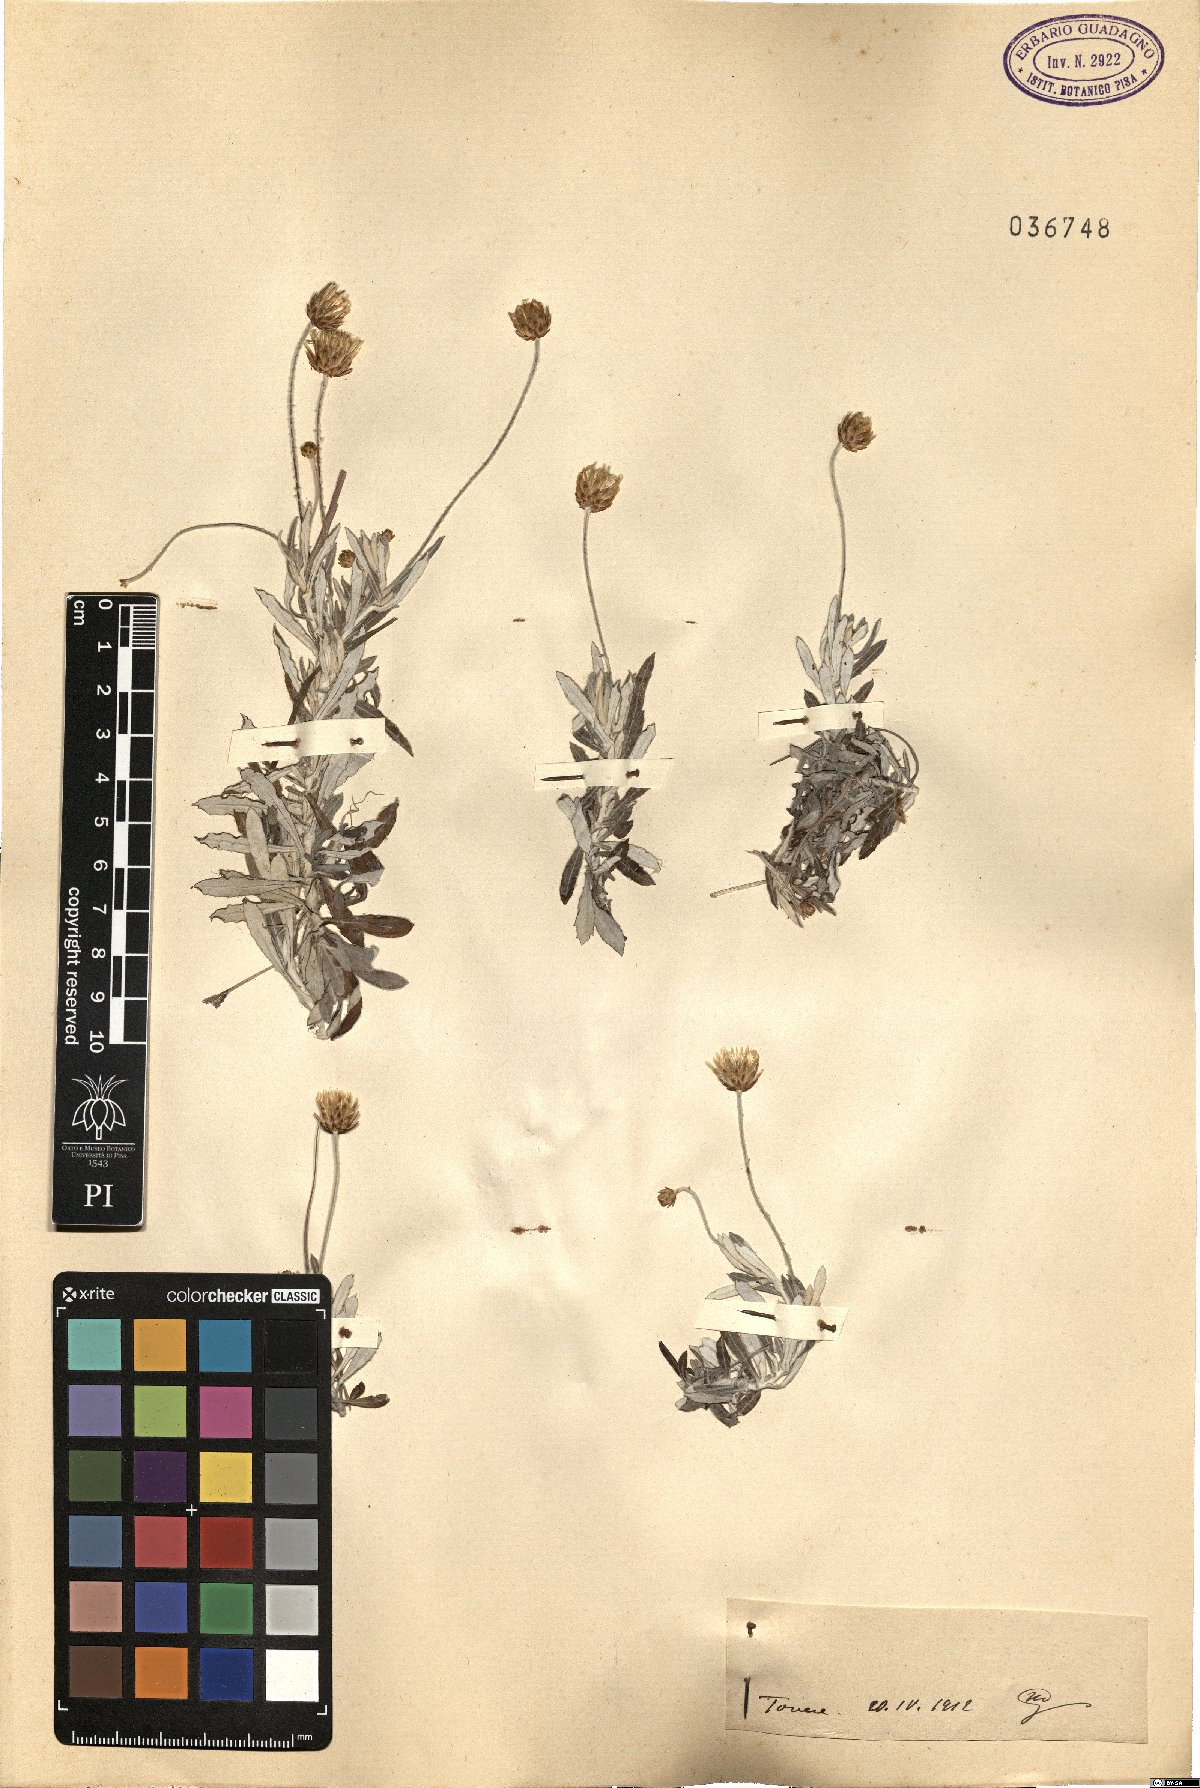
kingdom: Plantae
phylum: Tracheophyta
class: Magnoliopsida
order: Asterales
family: Asteraceae
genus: Phagnalon
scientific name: Phagnalon
